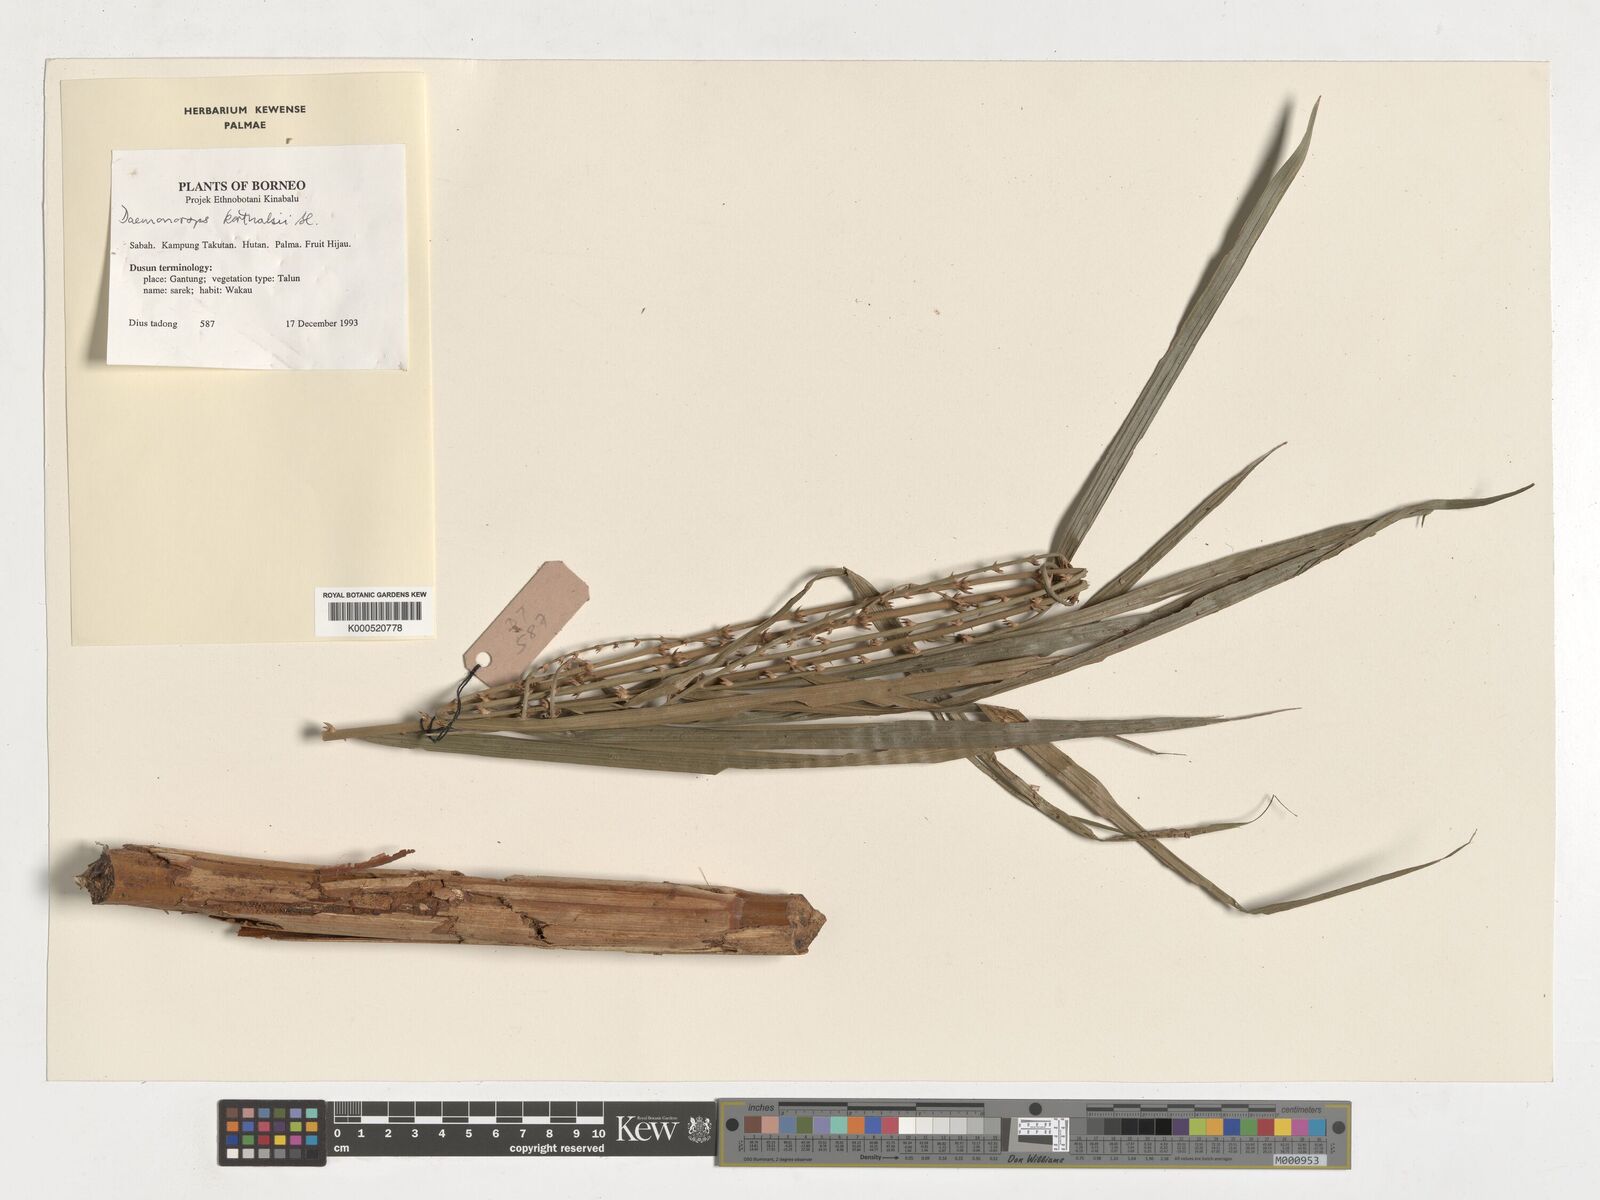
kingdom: Plantae
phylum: Tracheophyta
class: Liliopsida
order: Arecales
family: Arecaceae
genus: Calamus
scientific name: Calamus hirsutus
